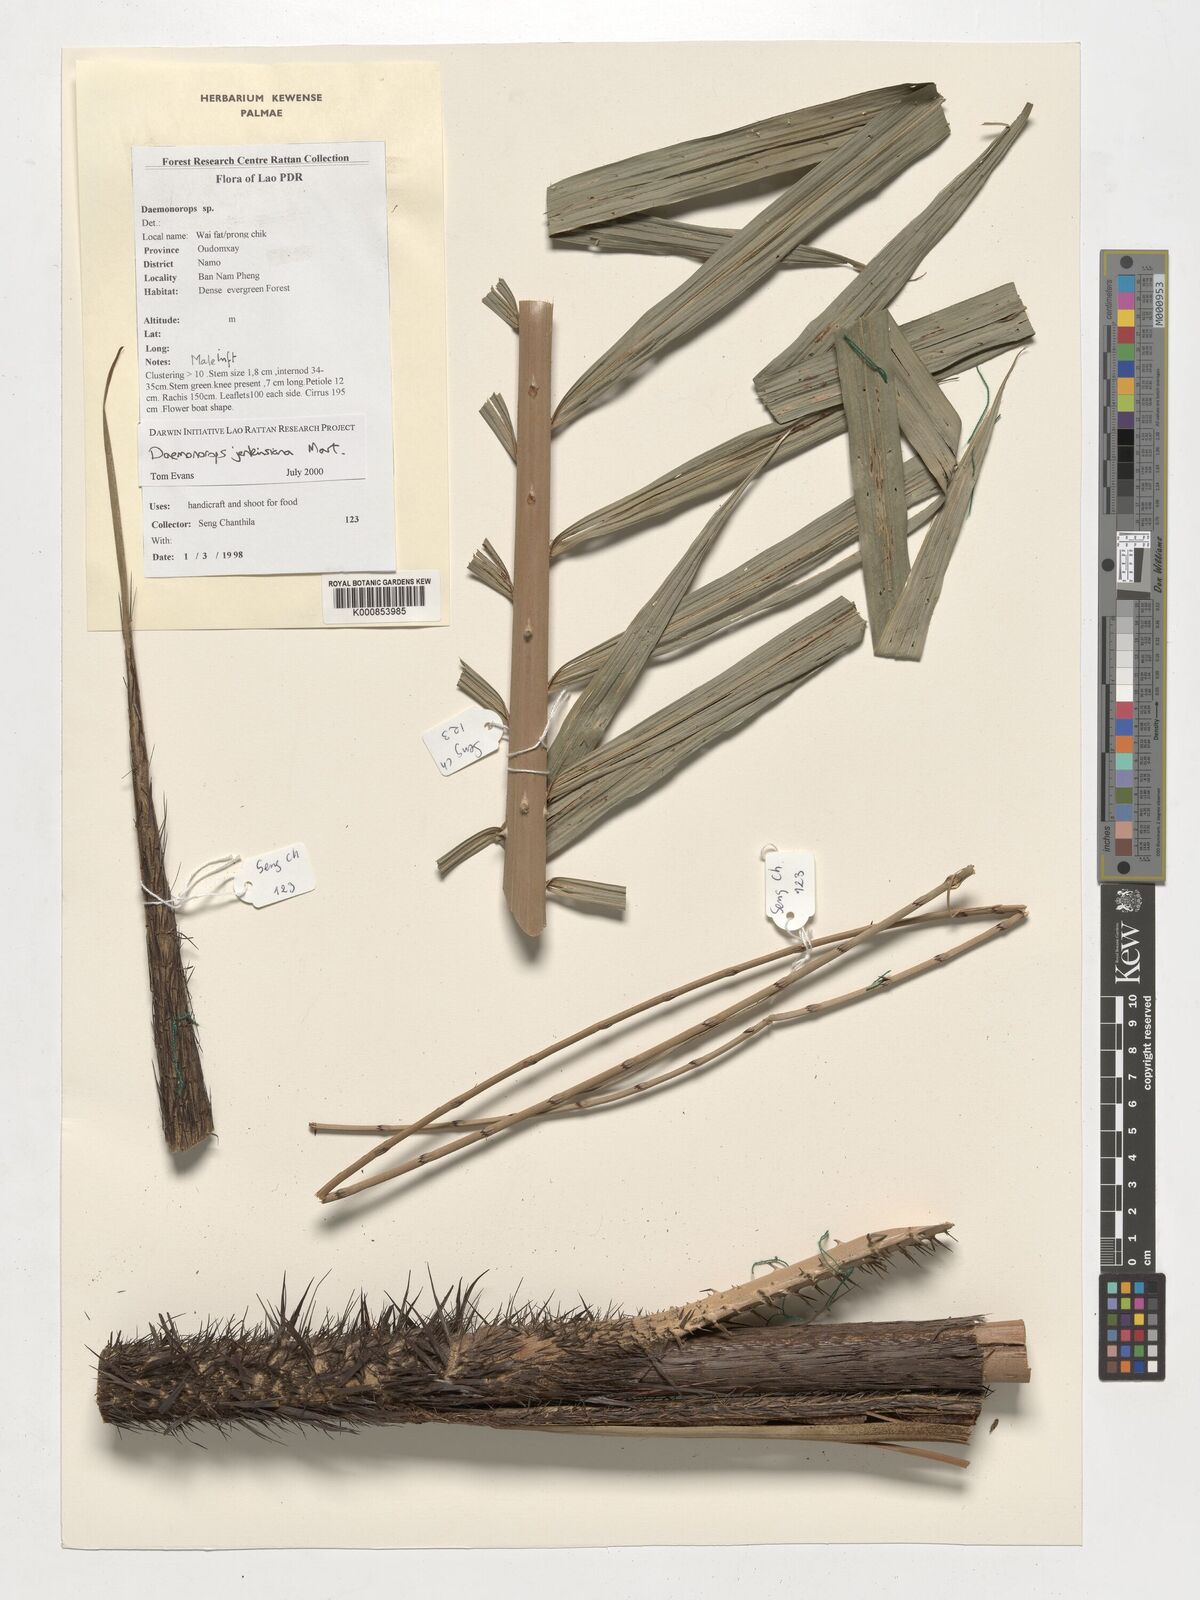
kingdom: Plantae
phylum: Tracheophyta
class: Liliopsida
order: Arecales
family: Arecaceae
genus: Calamus
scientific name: Calamus melanochaetes
